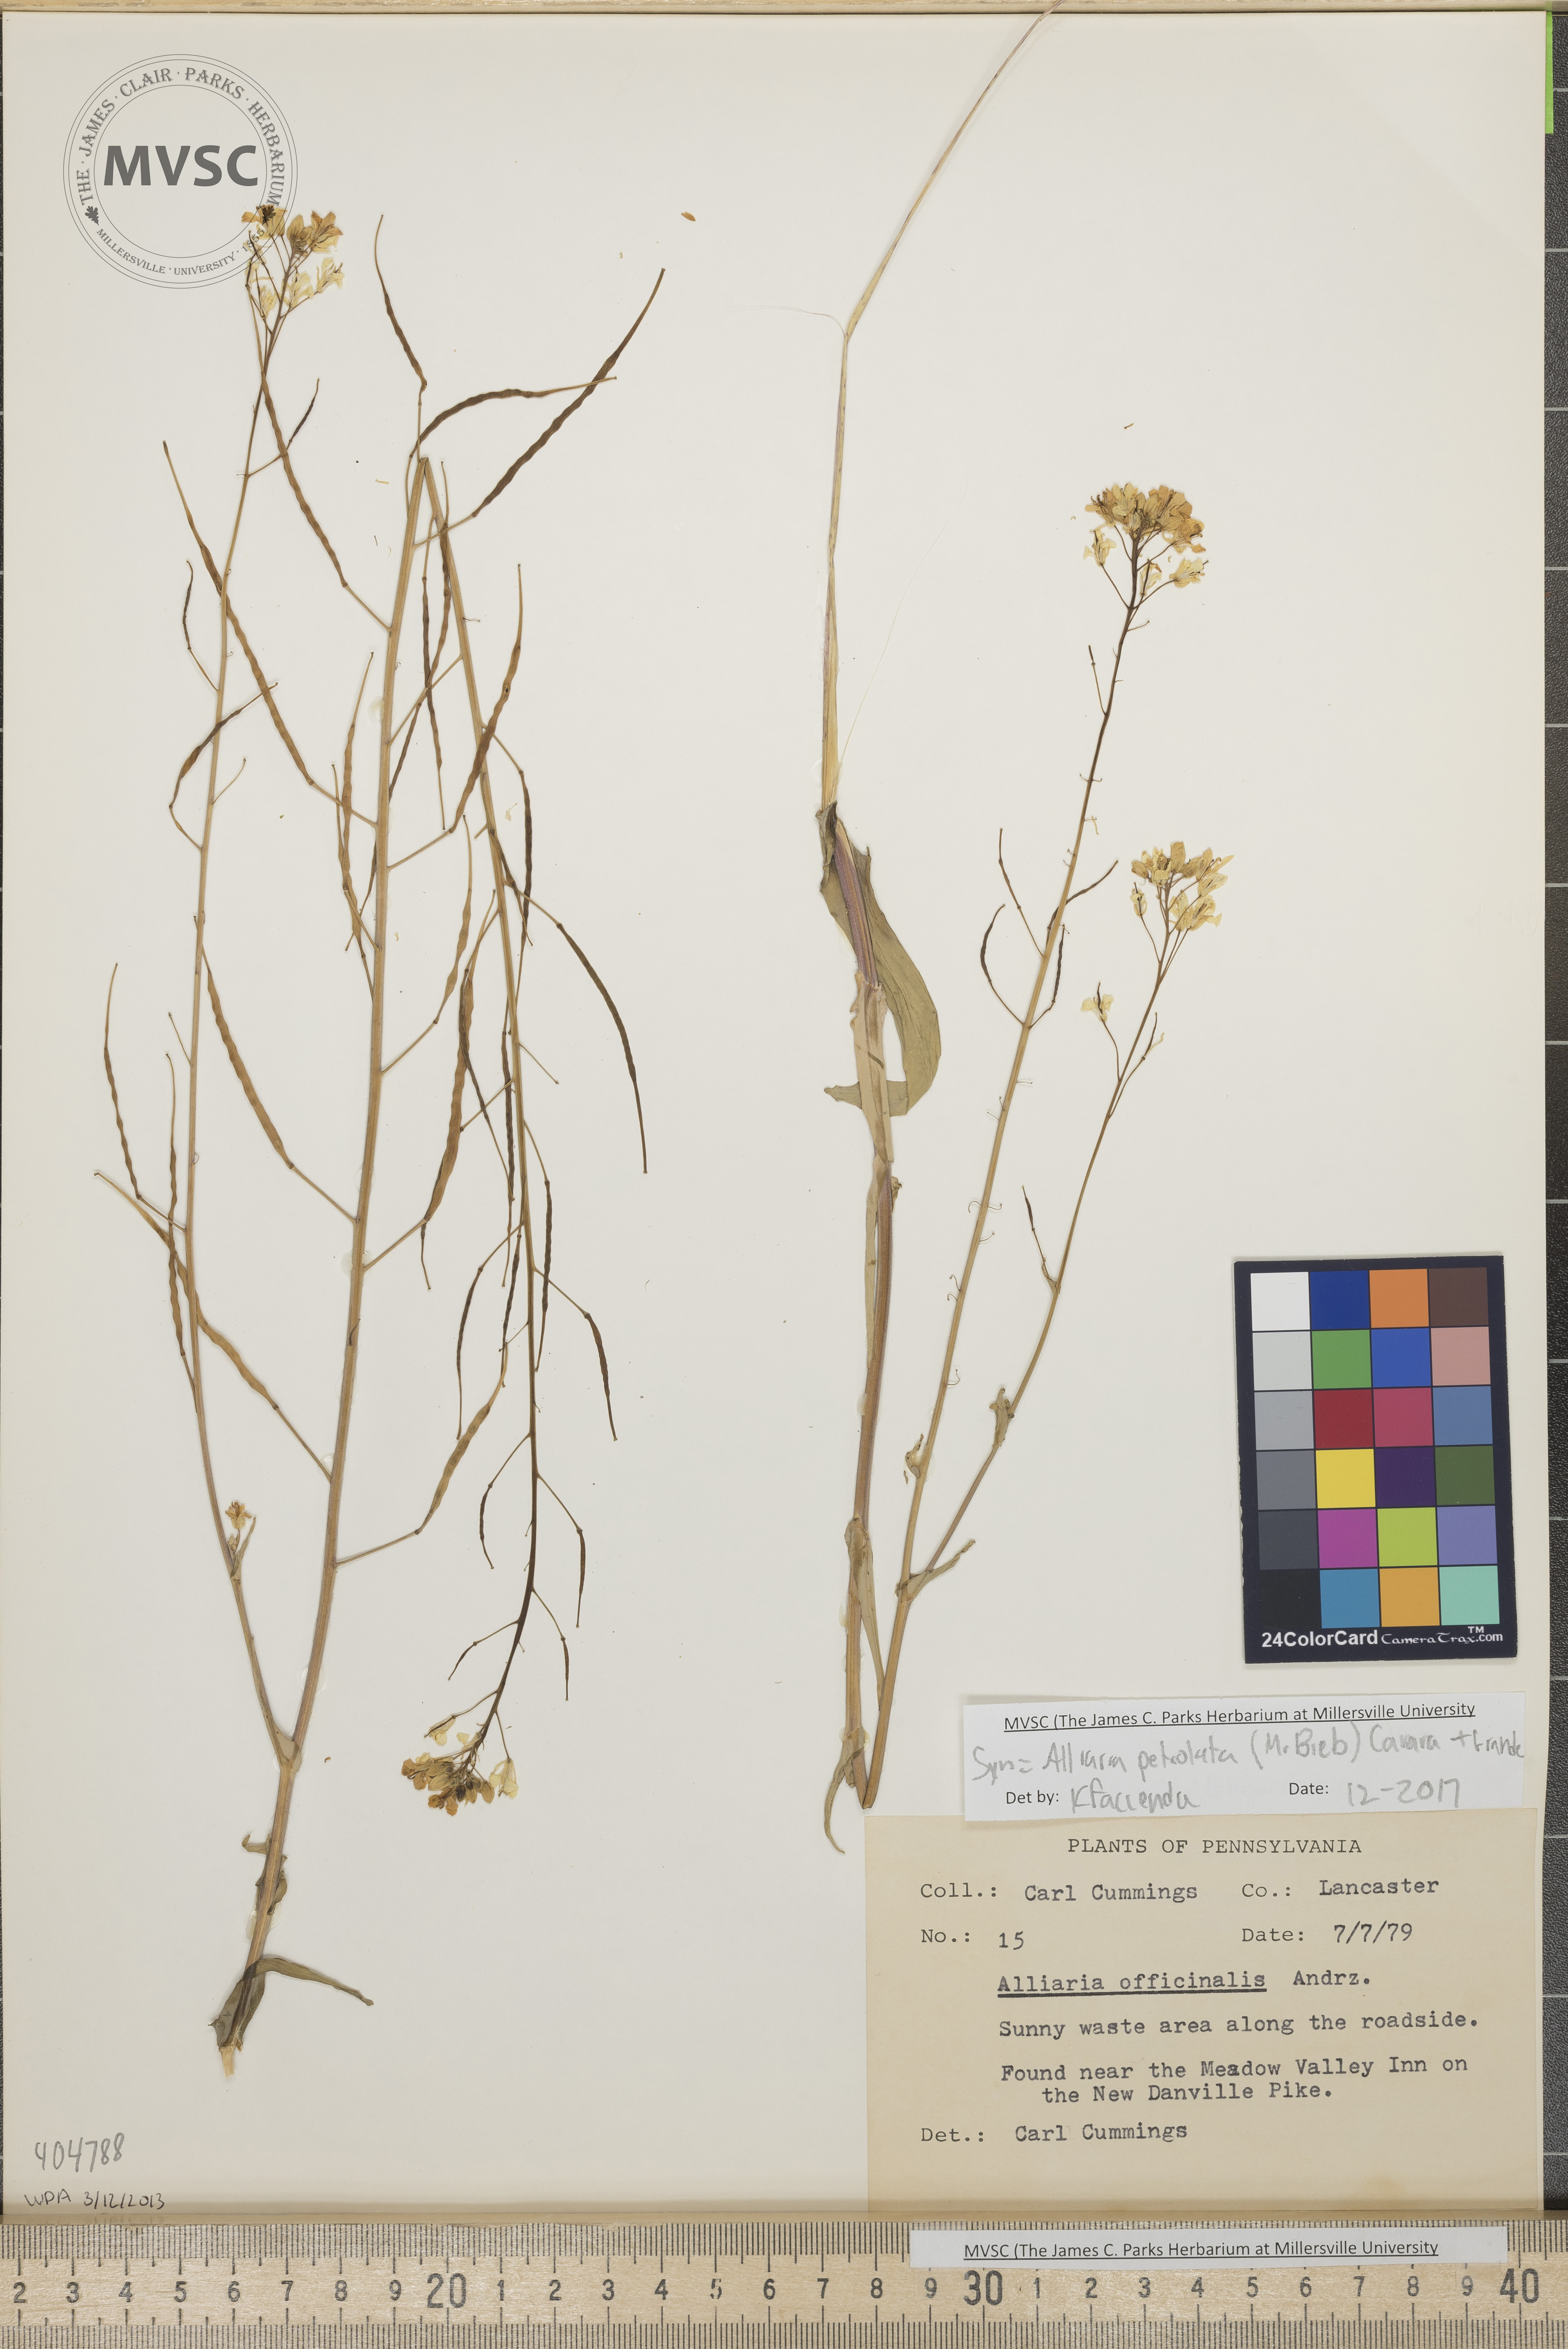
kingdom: Plantae
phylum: Tracheophyta
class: Magnoliopsida
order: Brassicales
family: Brassicaceae
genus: Brassica
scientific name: Brassica rapa
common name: Wild mustard
